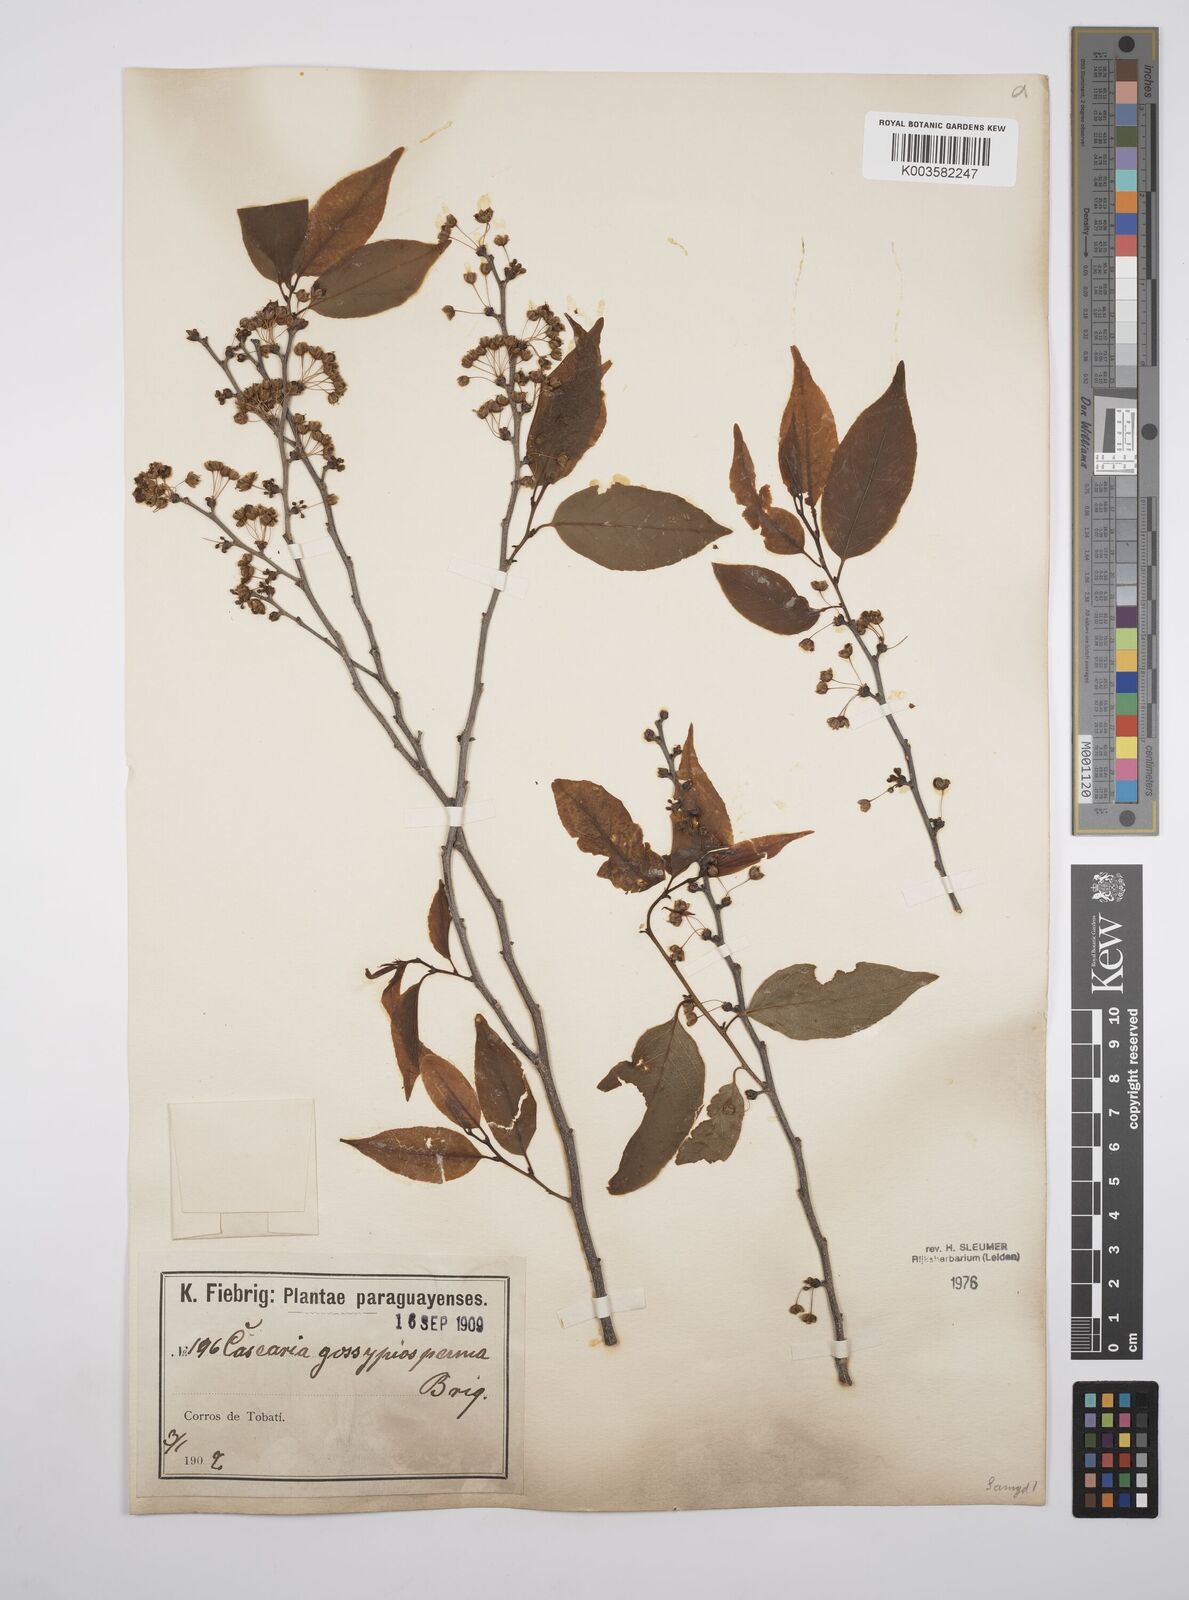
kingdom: Plantae
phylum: Tracheophyta
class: Magnoliopsida
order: Malpighiales
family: Salicaceae
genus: Casearia
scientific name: Casearia gossypiosperma
